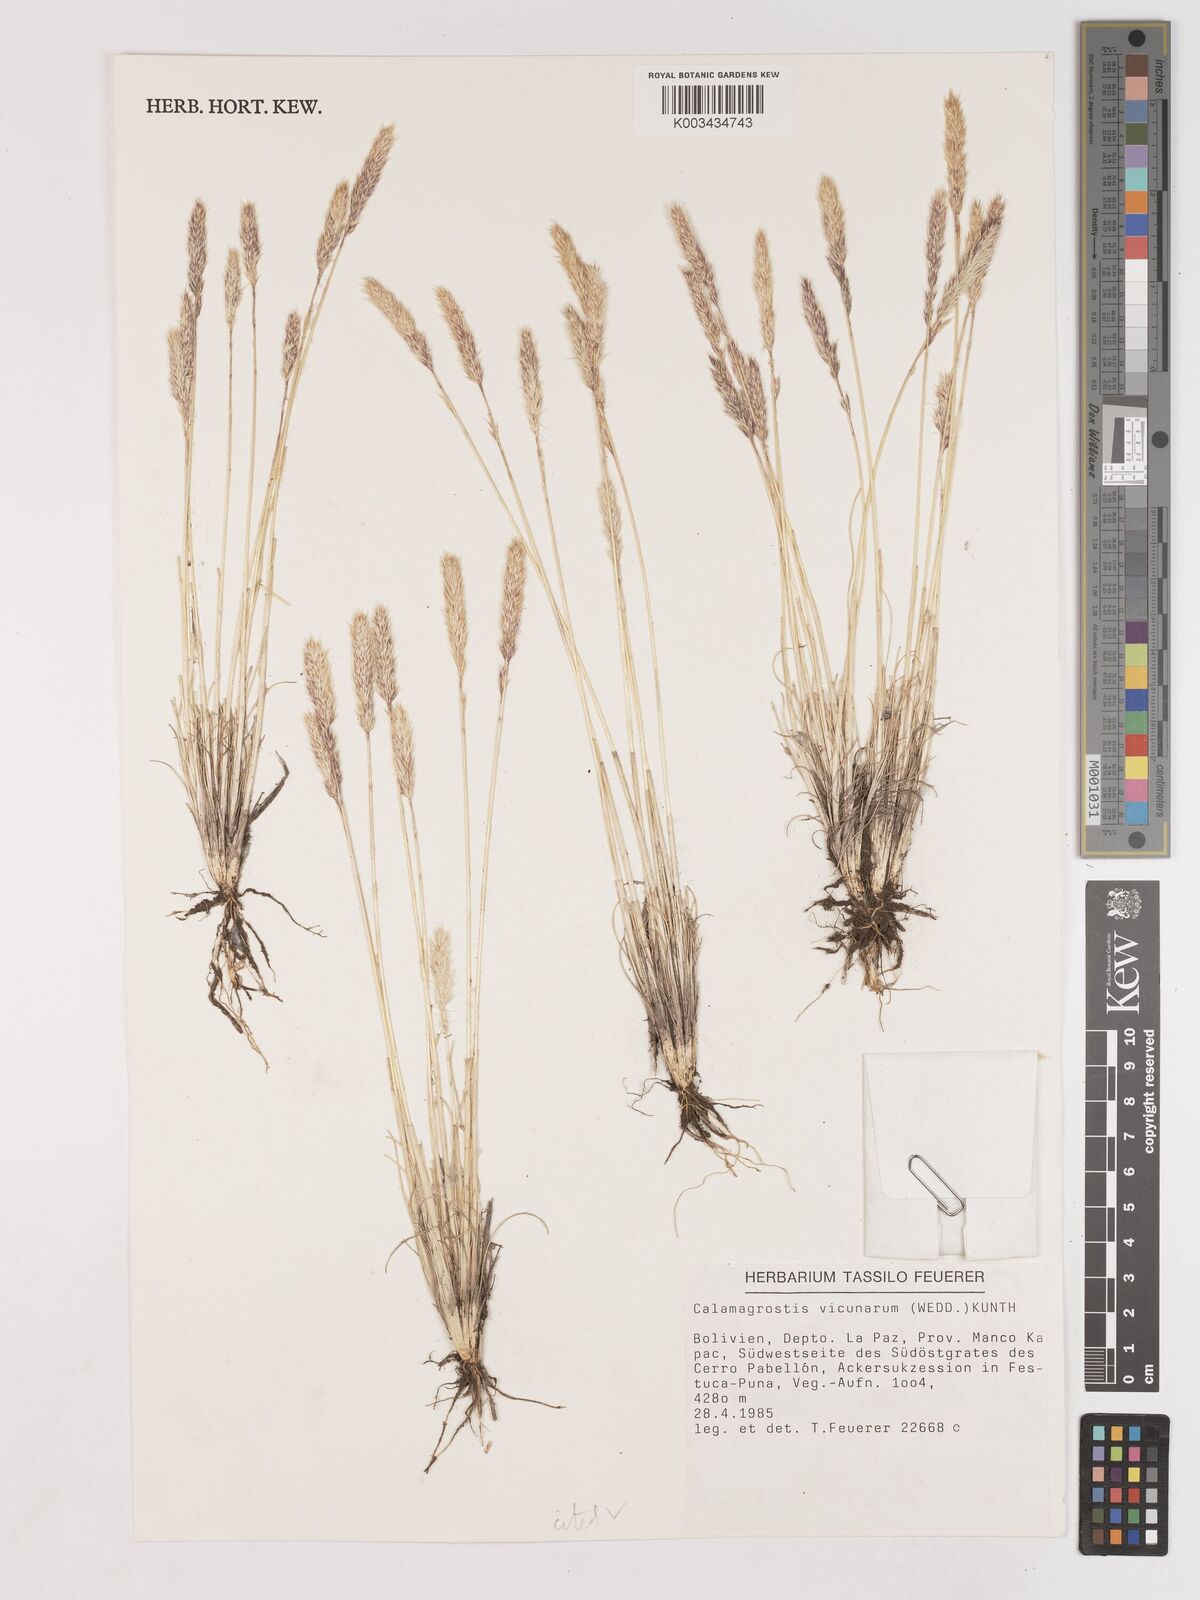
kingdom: Plantae
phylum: Tracheophyta
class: Liliopsida
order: Poales
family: Poaceae
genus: Cinnagrostis
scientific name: Cinnagrostis vicunarum
